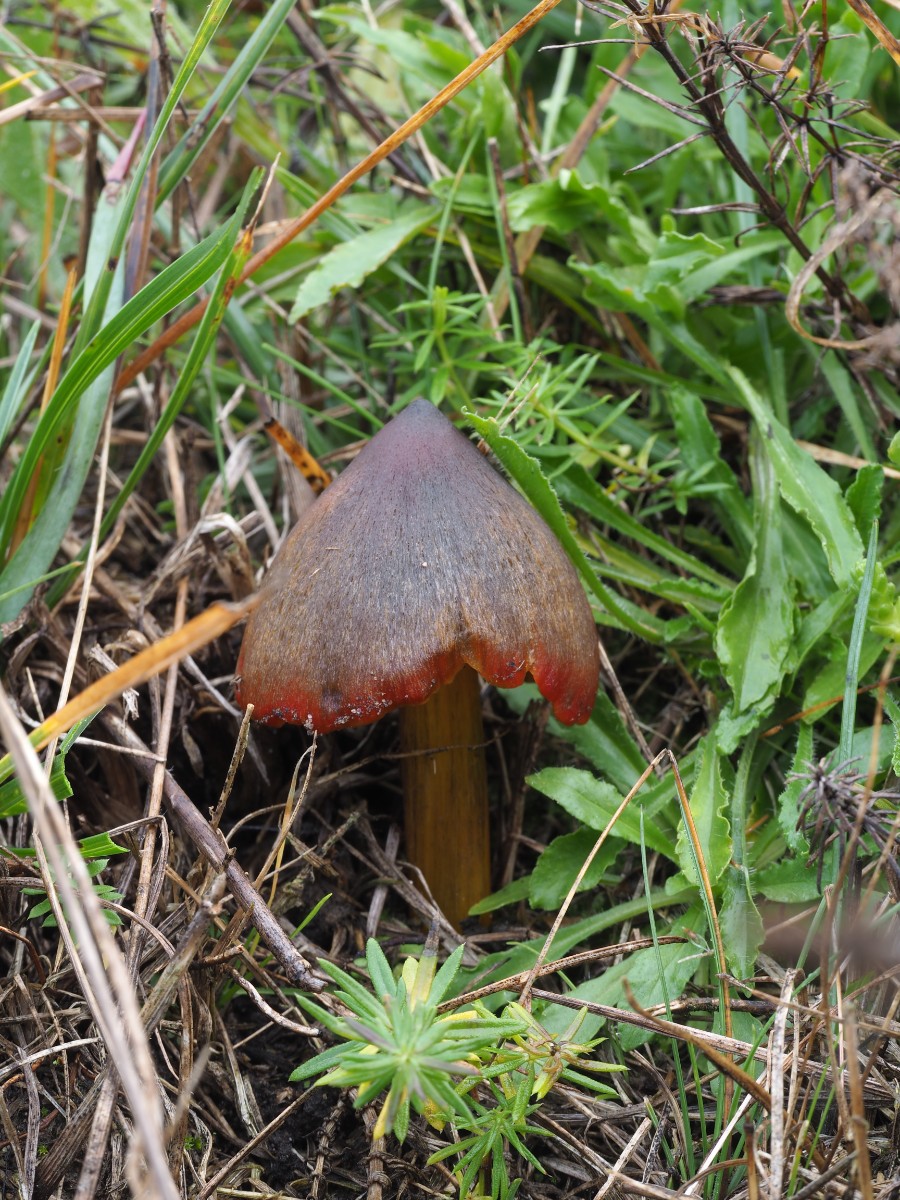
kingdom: Fungi
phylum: Basidiomycota
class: Agaricomycetes
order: Agaricales
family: Hygrophoraceae
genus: Hygrocybe
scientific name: Hygrocybe conica
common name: kegle-vokshat
